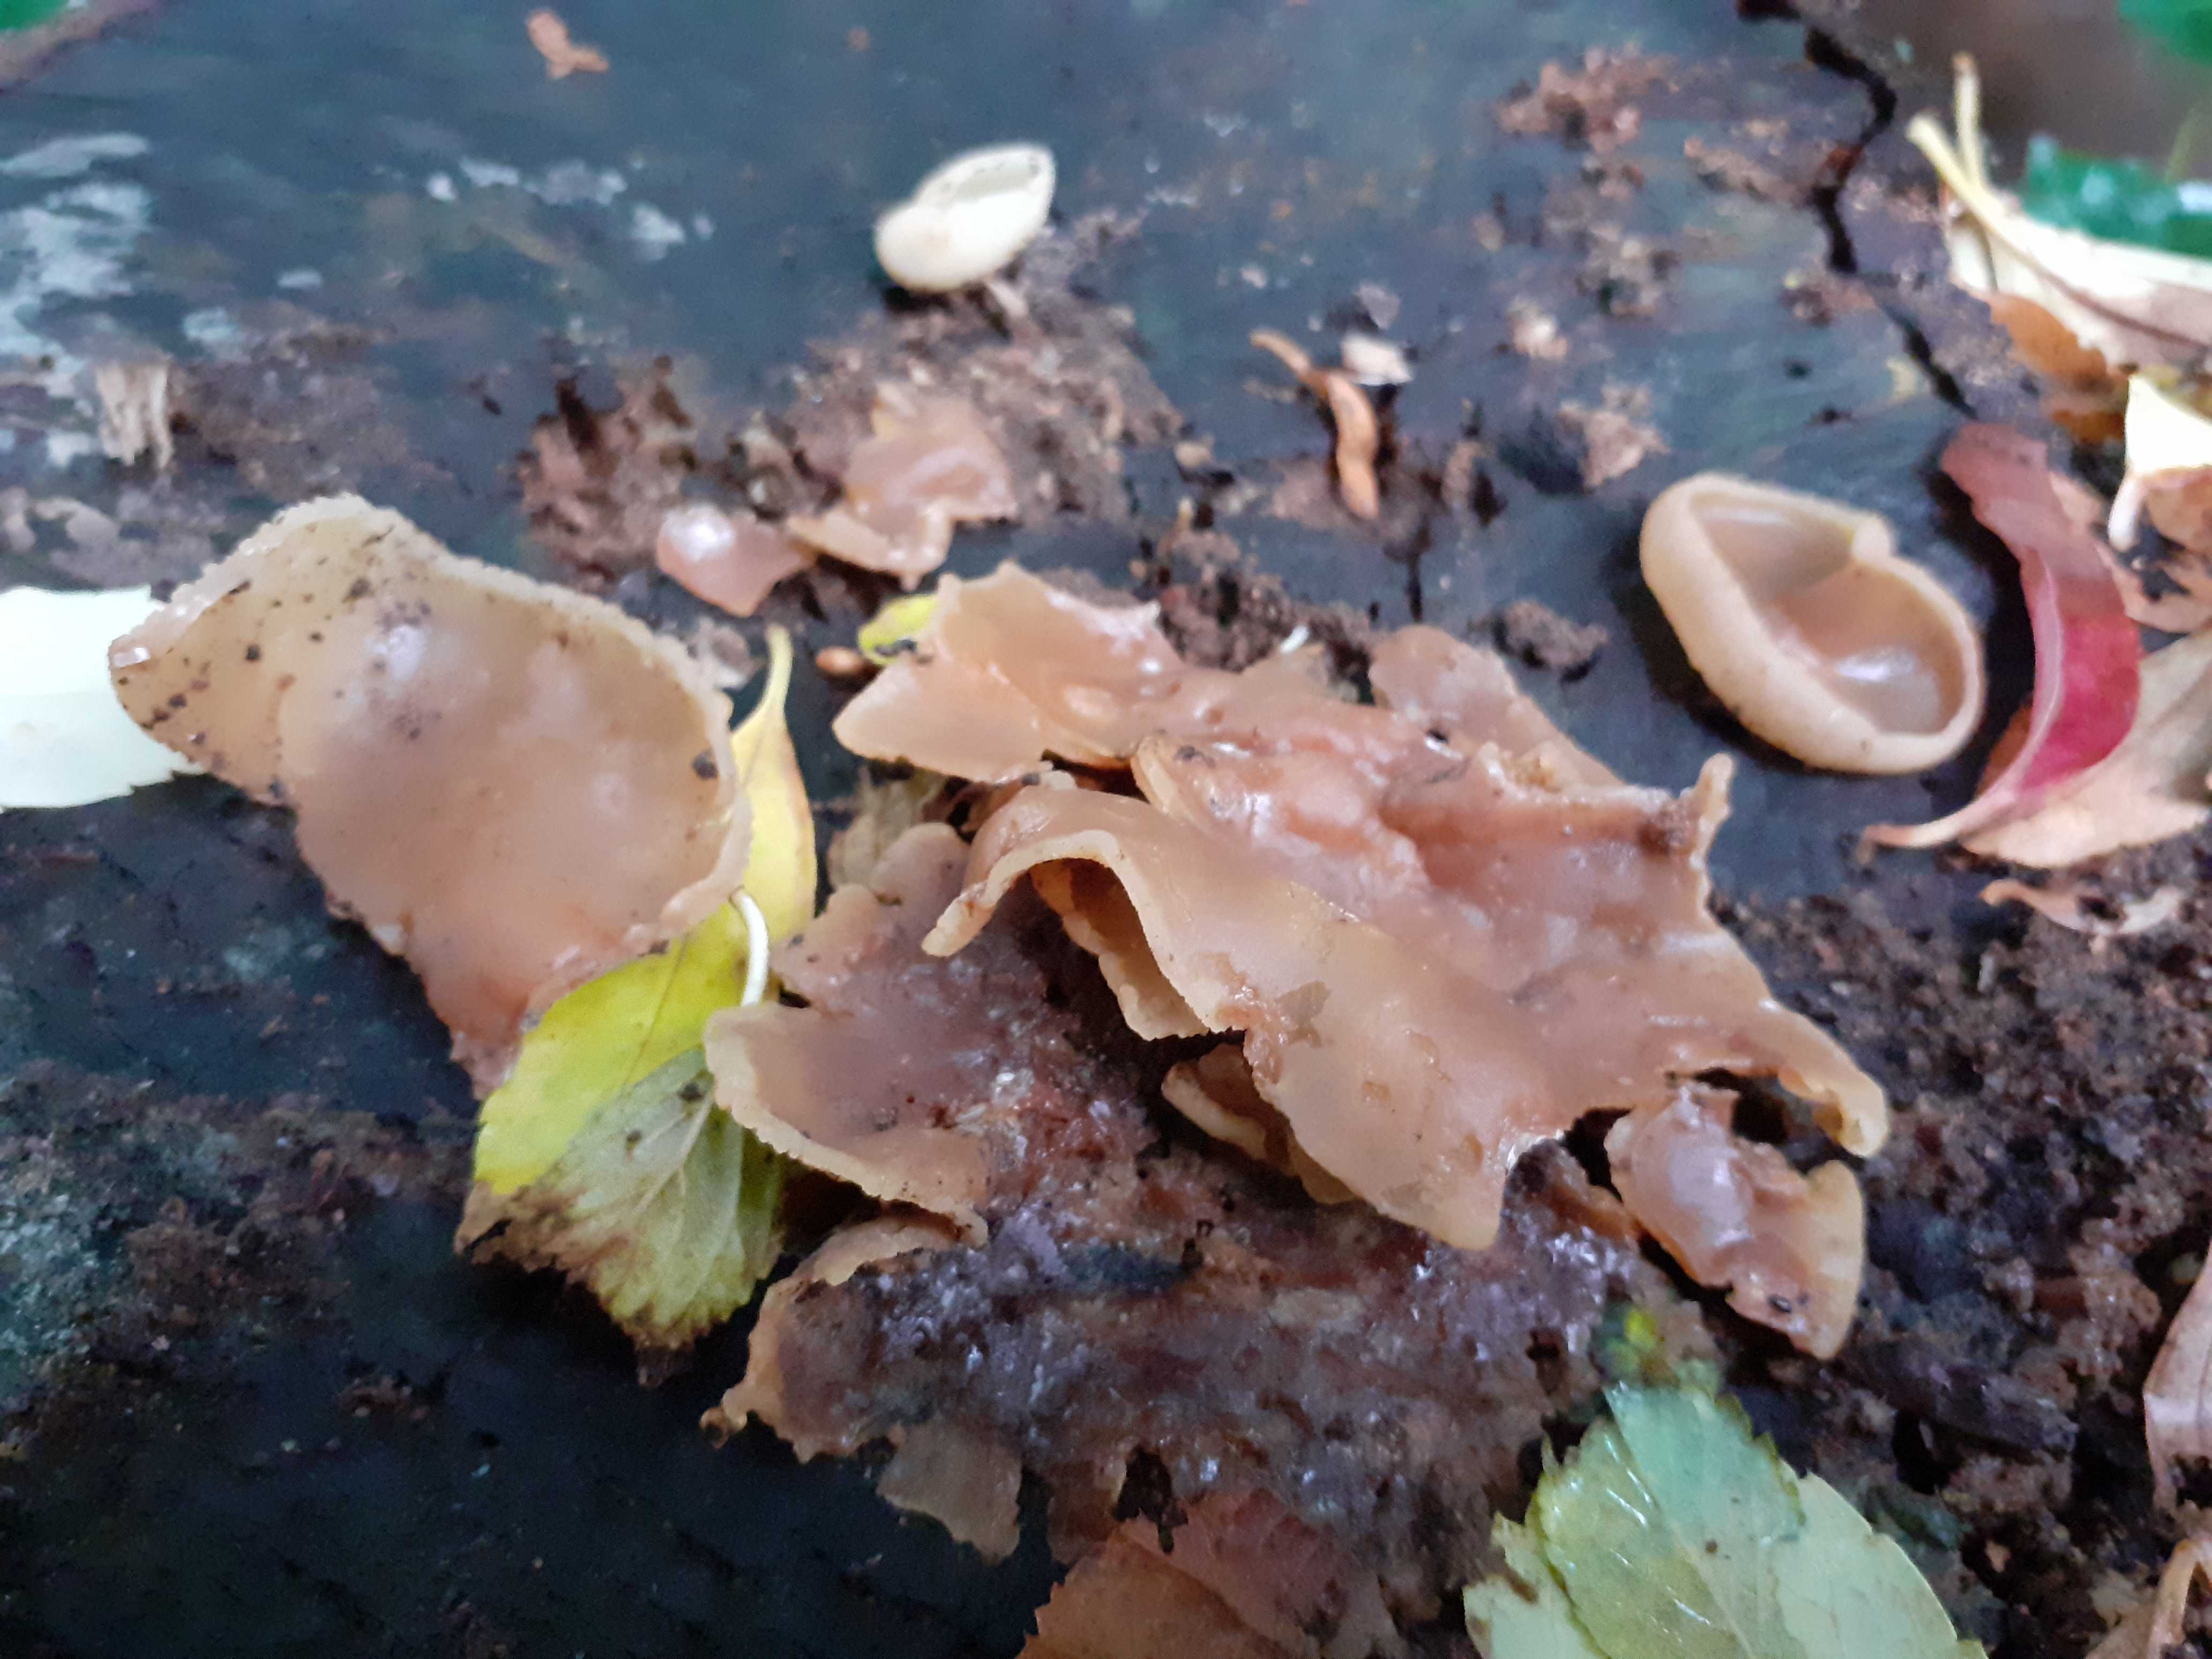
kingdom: Fungi
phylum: Ascomycota
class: Pezizomycetes
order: Pezizales
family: Pezizaceae
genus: Peziza
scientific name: Peziza varia
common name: Ved-bægersvamp
